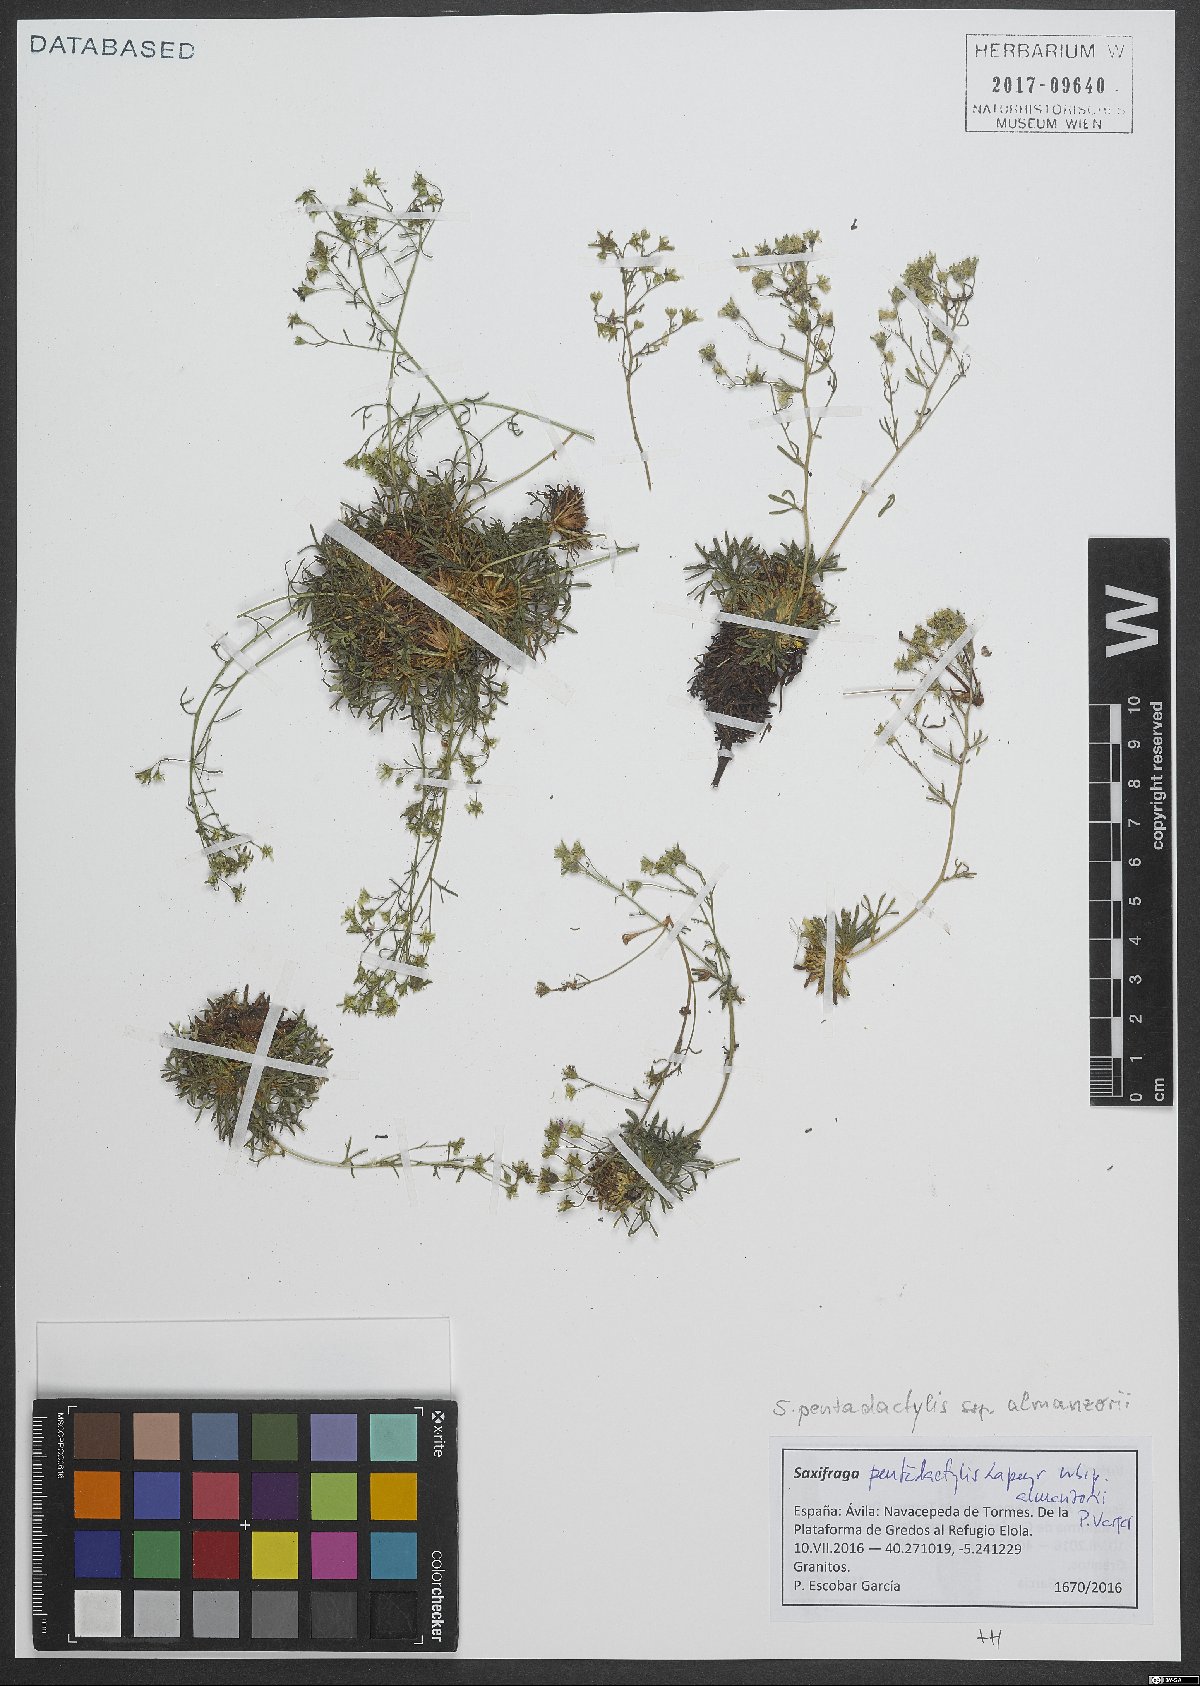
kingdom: Plantae
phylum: Tracheophyta
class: Magnoliopsida
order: Saxifragales
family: Saxifragaceae
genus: Saxifraga
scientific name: Saxifraga willkommiana
